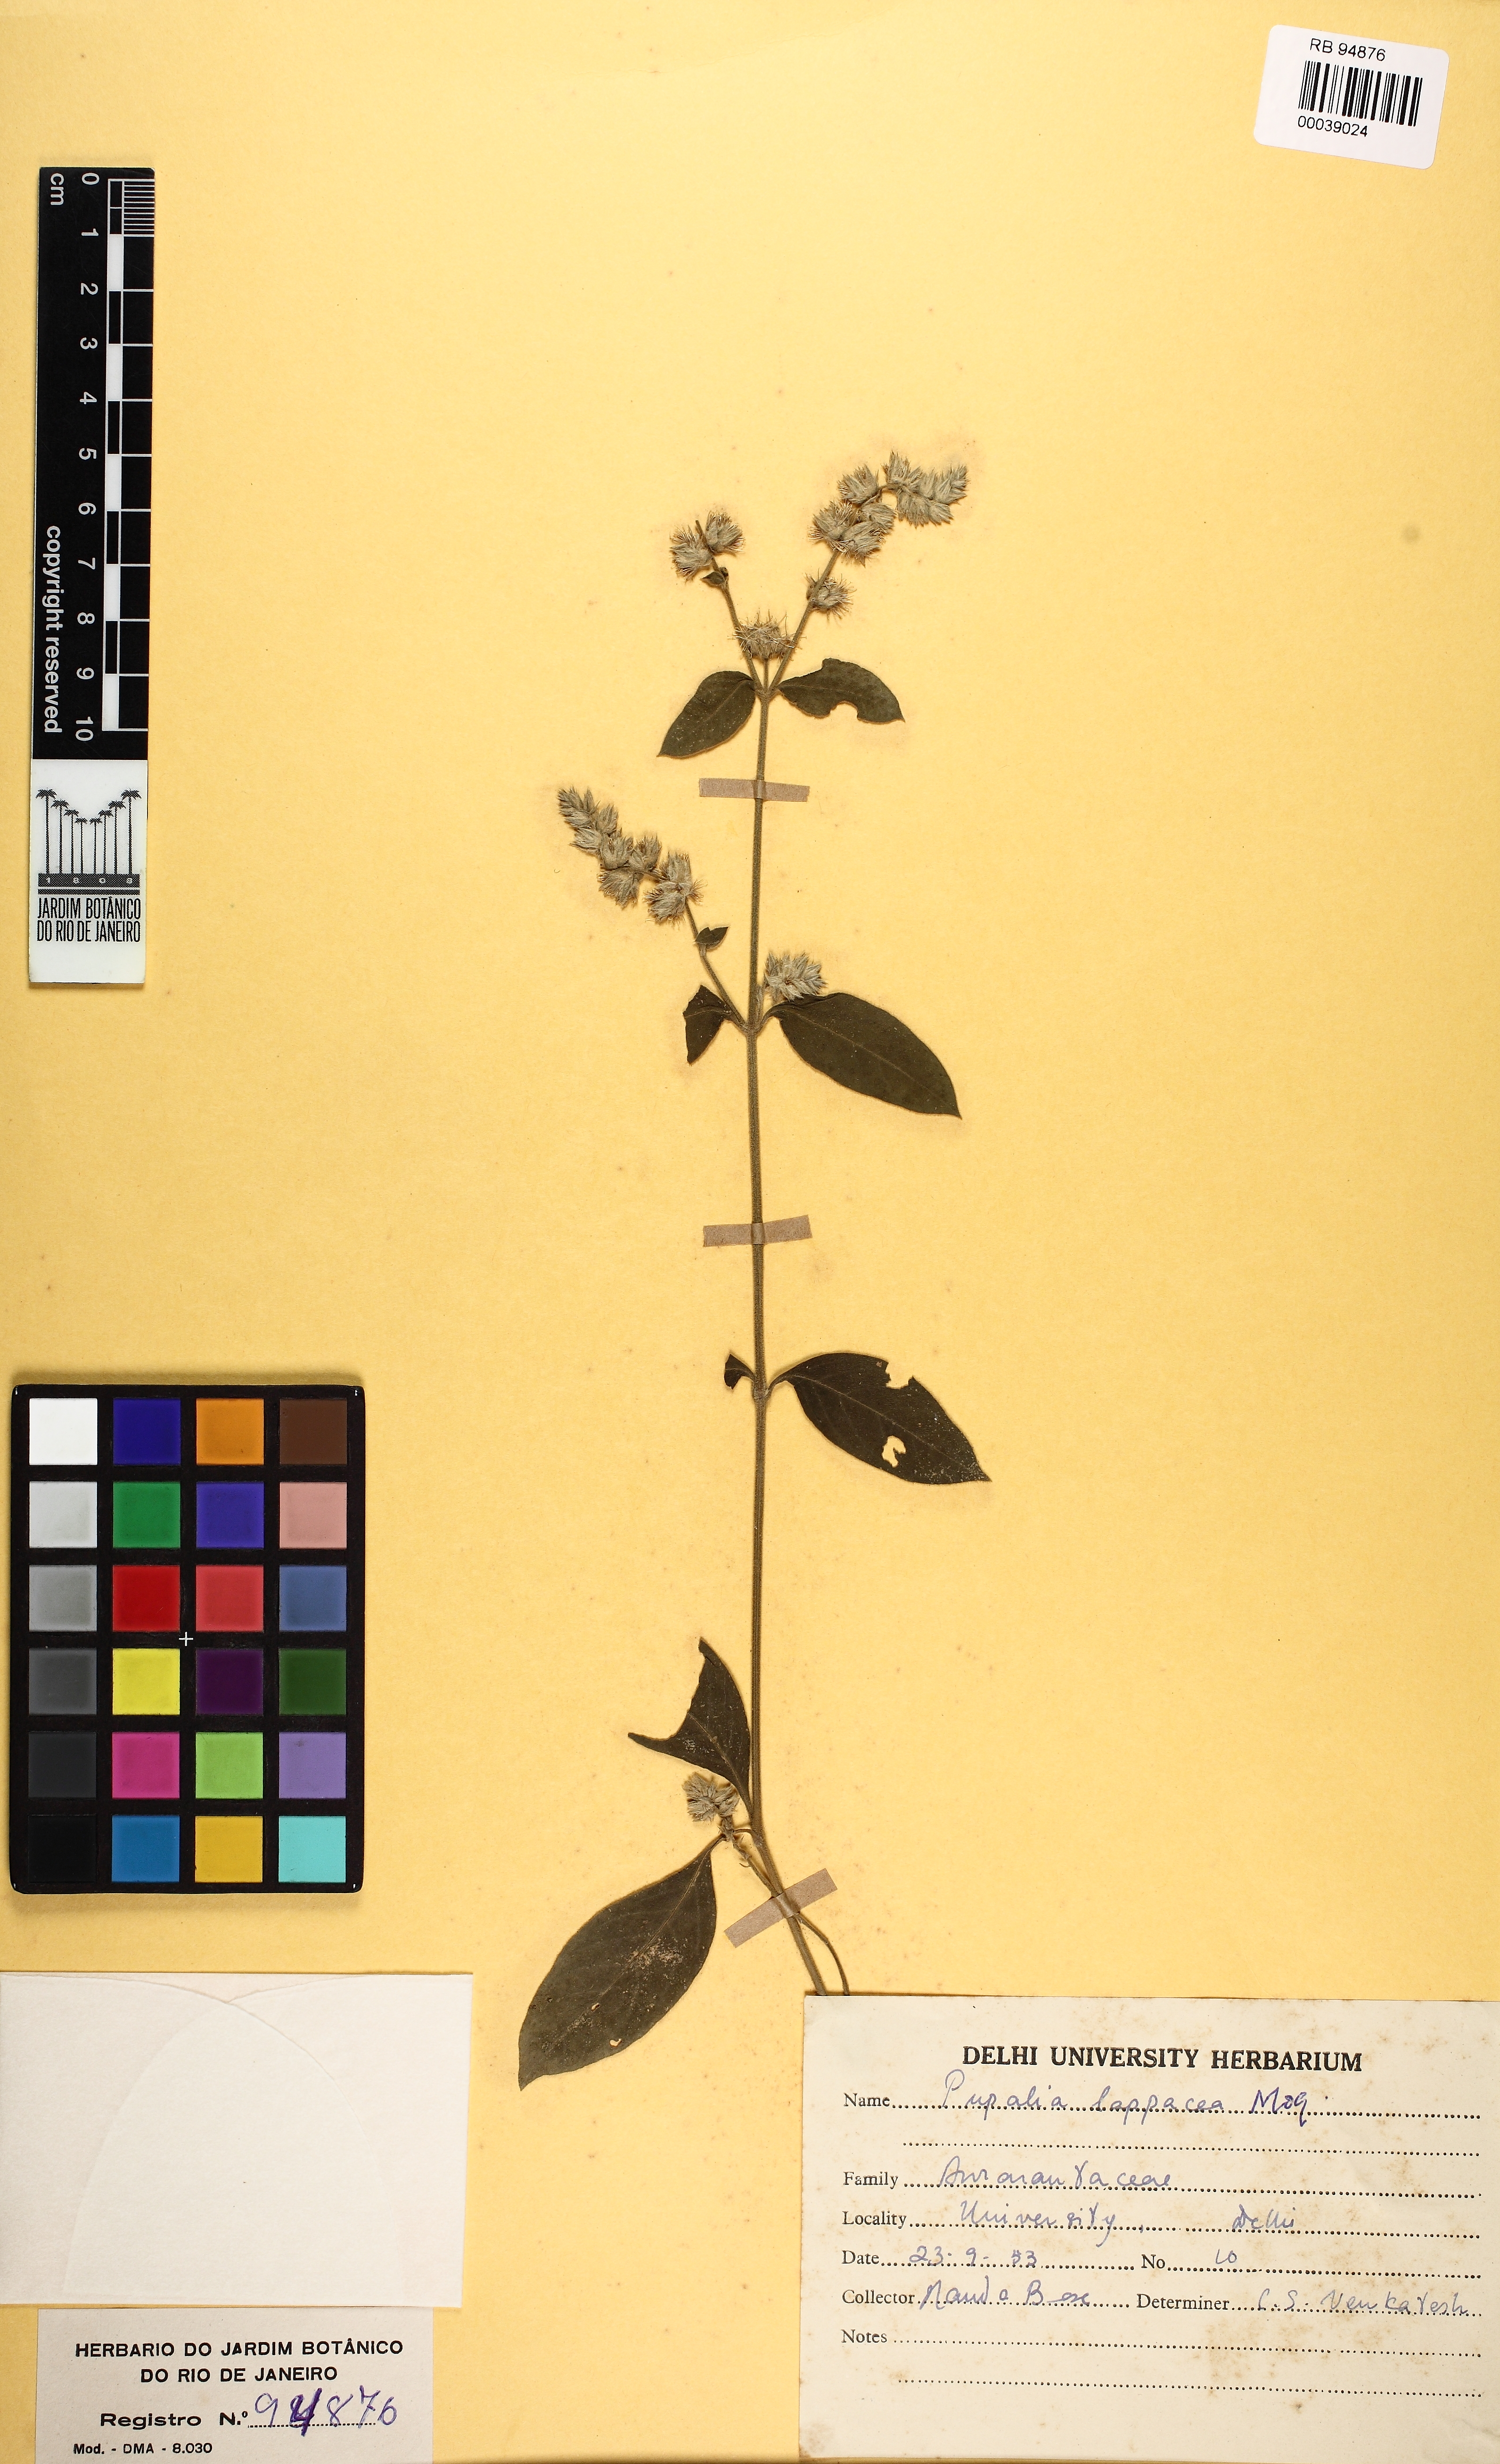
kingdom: Plantae
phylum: Tracheophyta
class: Magnoliopsida
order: Caryophyllales
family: Amaranthaceae
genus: Pupalia
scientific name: Pupalia lappacea
